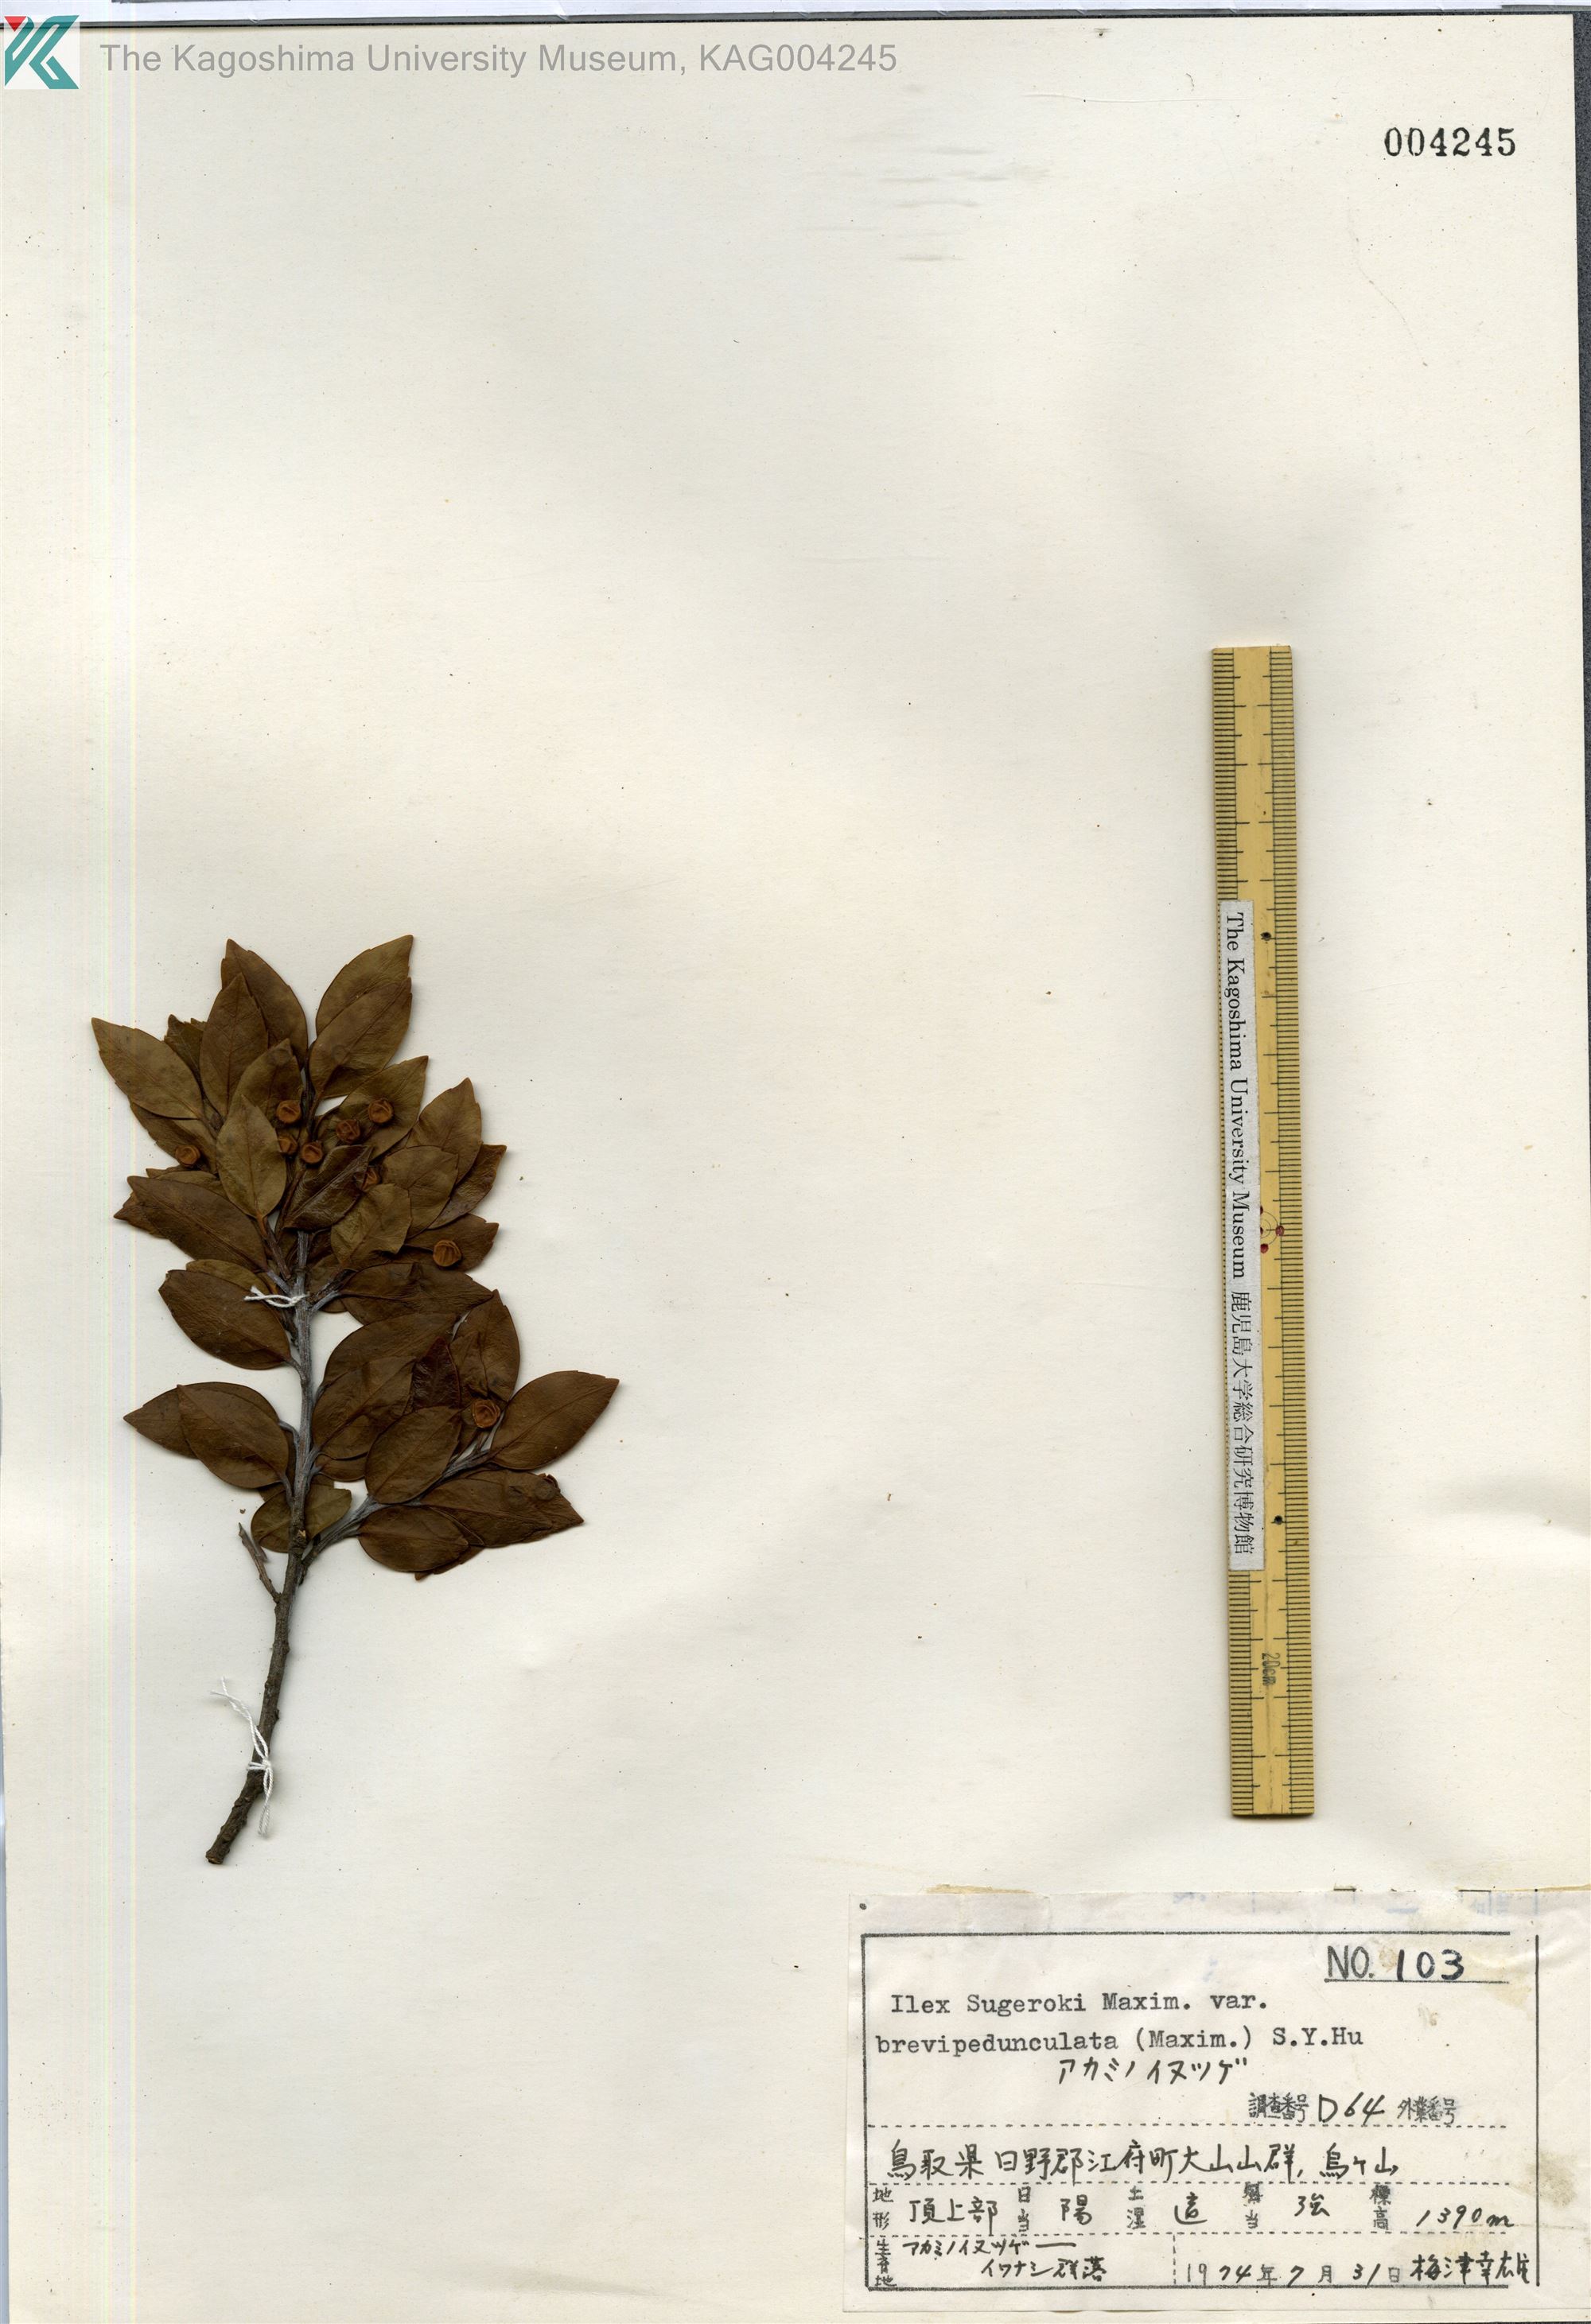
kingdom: Plantae
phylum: Tracheophyta
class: Magnoliopsida
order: Aquifoliales
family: Aquifoliaceae
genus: Ilex
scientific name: Ilex sugerokii
